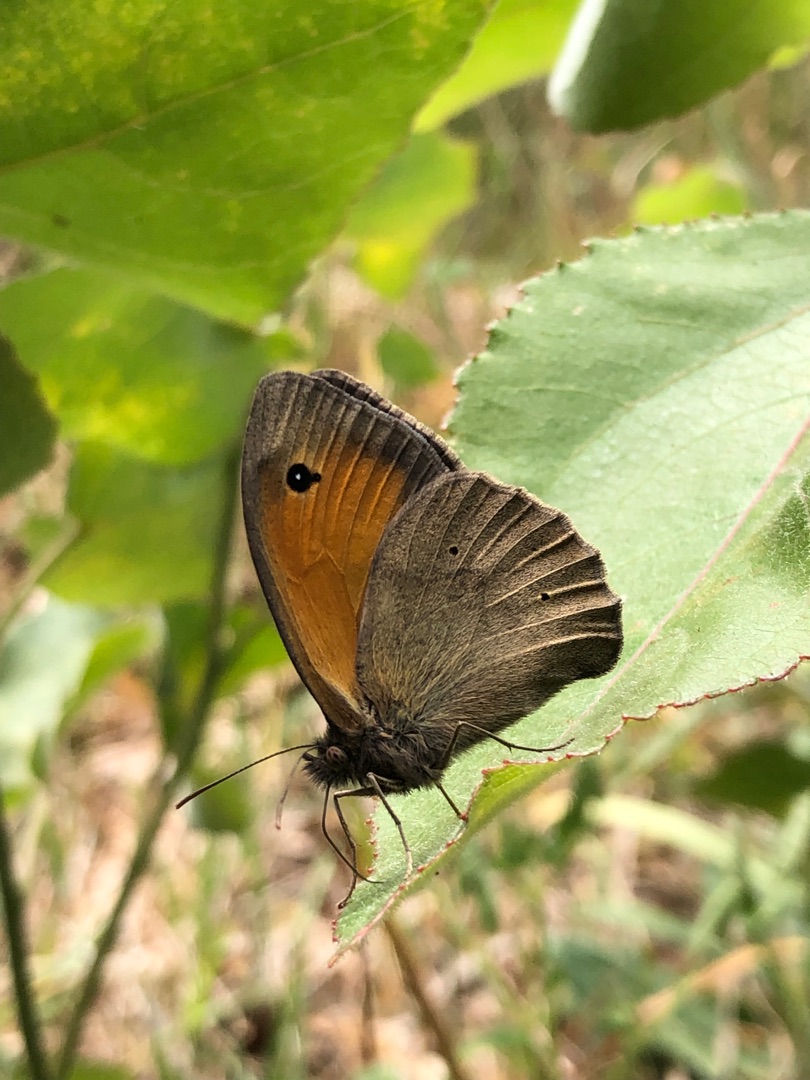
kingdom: Animalia
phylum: Arthropoda
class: Insecta
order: Lepidoptera
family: Nymphalidae
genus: Maniola
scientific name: Maniola jurtina
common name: Græsrandøje
